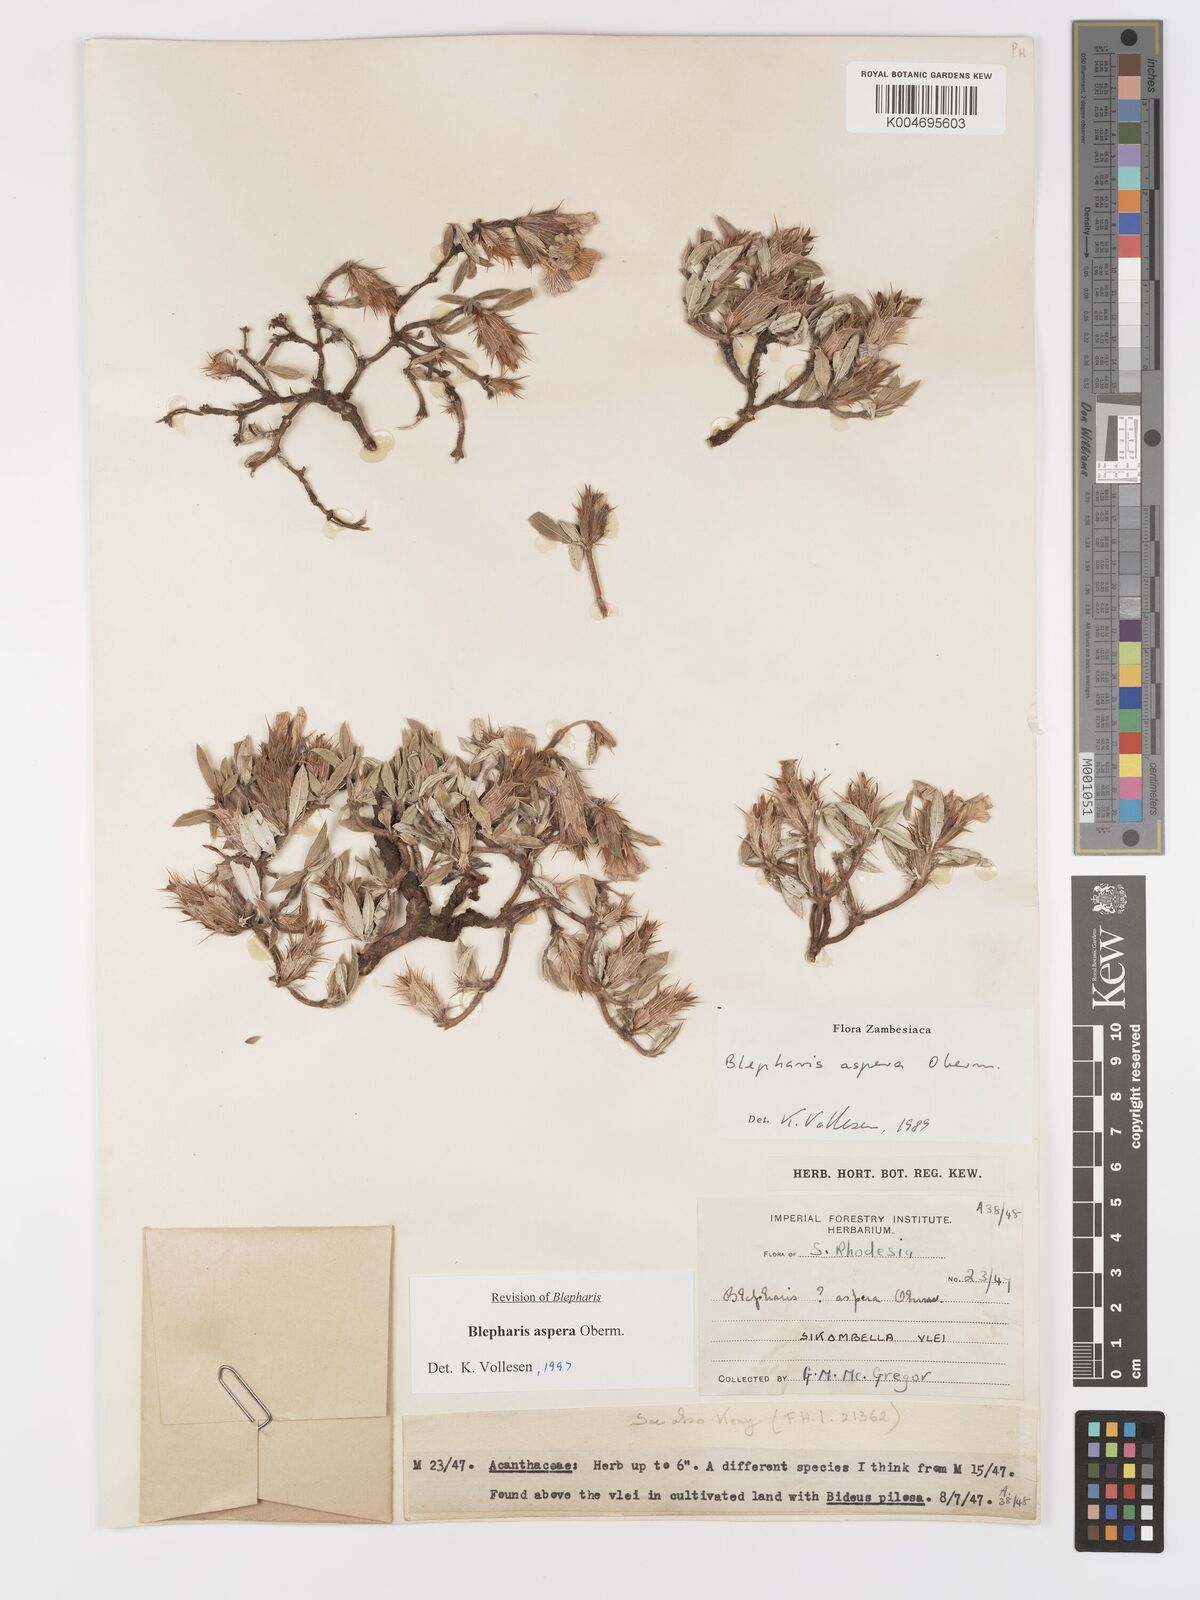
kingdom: Plantae
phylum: Tracheophyta
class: Magnoliopsida
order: Lamiales
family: Acanthaceae
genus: Blepharis
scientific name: Blepharis aspera
